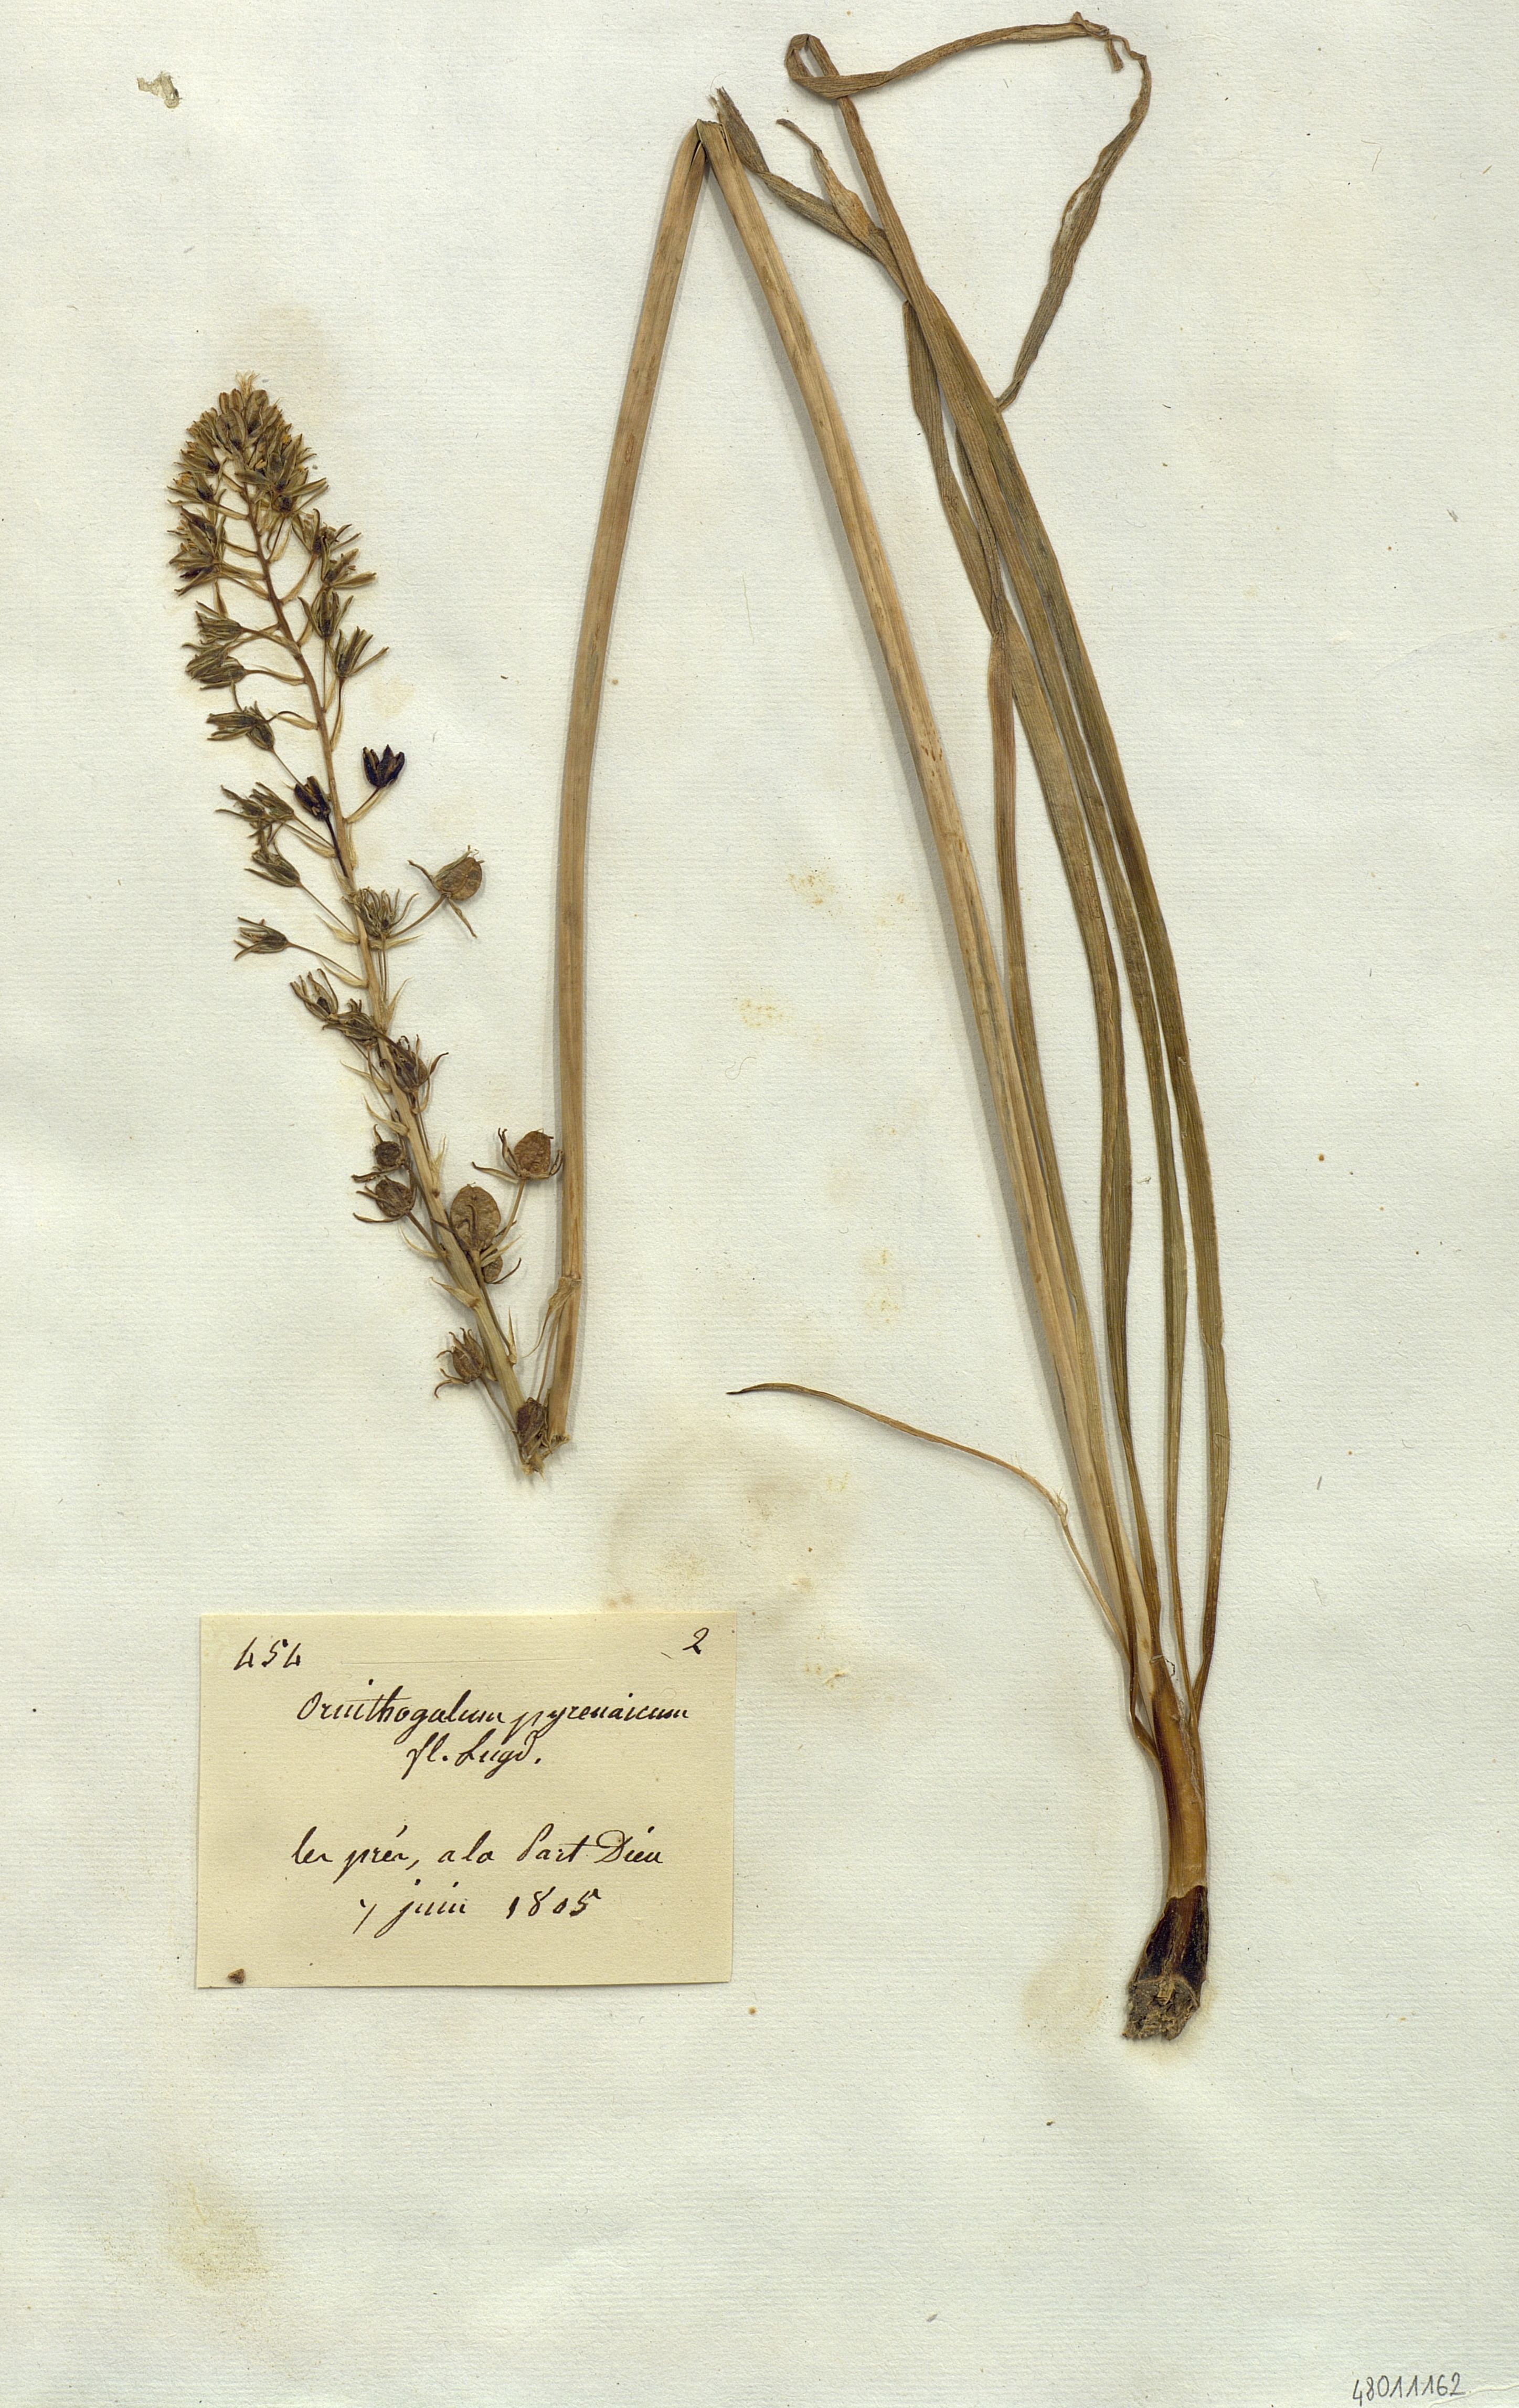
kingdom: Plantae
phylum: Tracheophyta
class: Liliopsida
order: Liliales
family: Liliaceae
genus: Ornithogalum
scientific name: Ornithogalum
